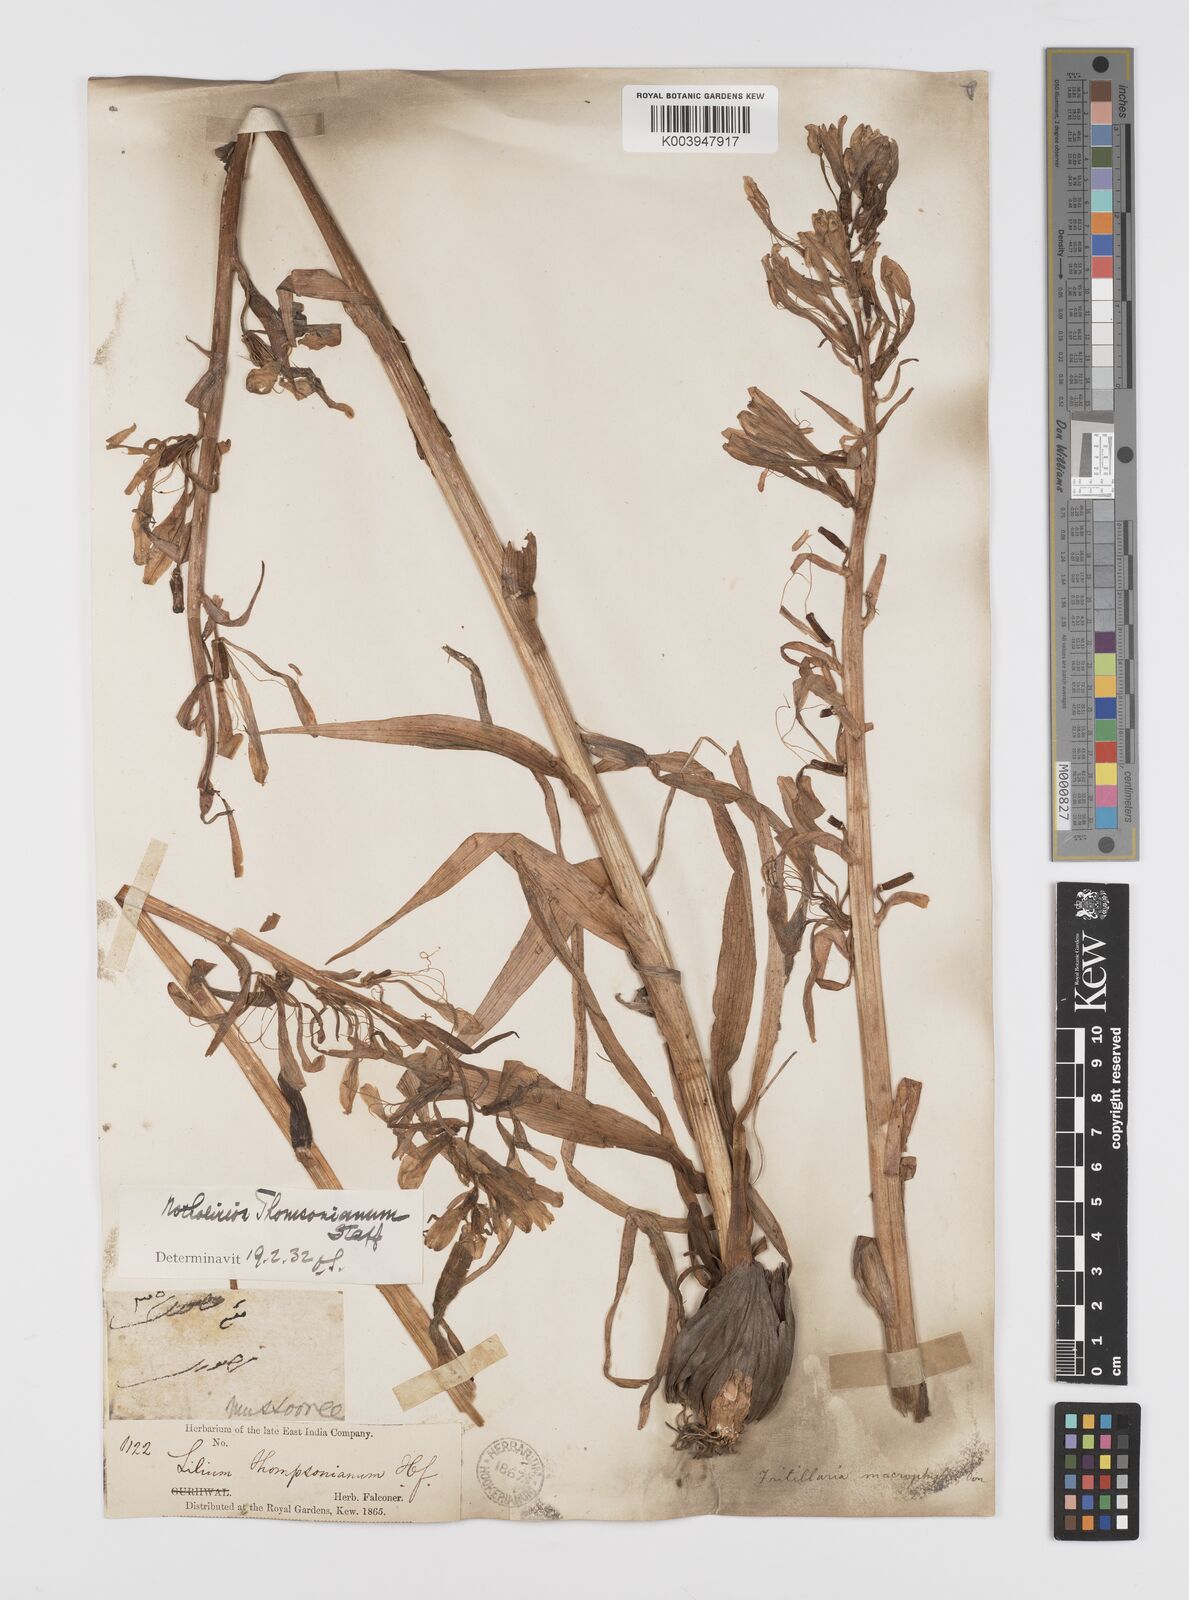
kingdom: Plantae
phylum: Tracheophyta
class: Liliopsida
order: Liliales
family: Liliaceae
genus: Notholirion
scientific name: Notholirion thomsonianum
